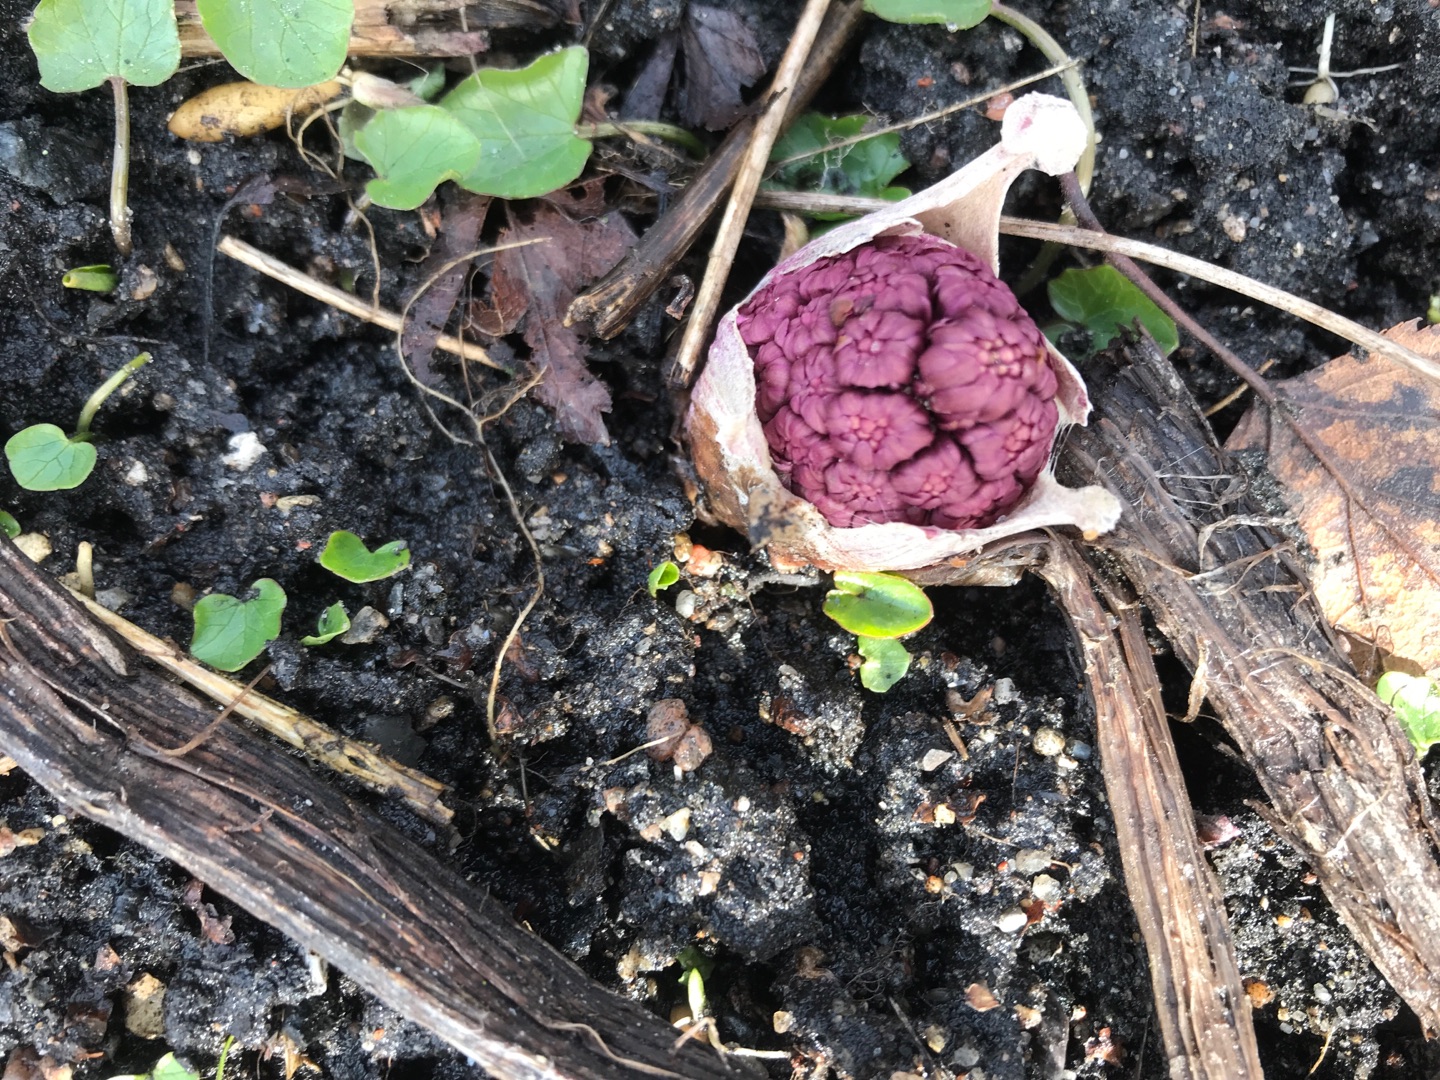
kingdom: Plantae
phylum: Tracheophyta
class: Magnoliopsida
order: Asterales
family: Asteraceae
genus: Petasites
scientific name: Petasites hybridus
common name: Rød hestehov
